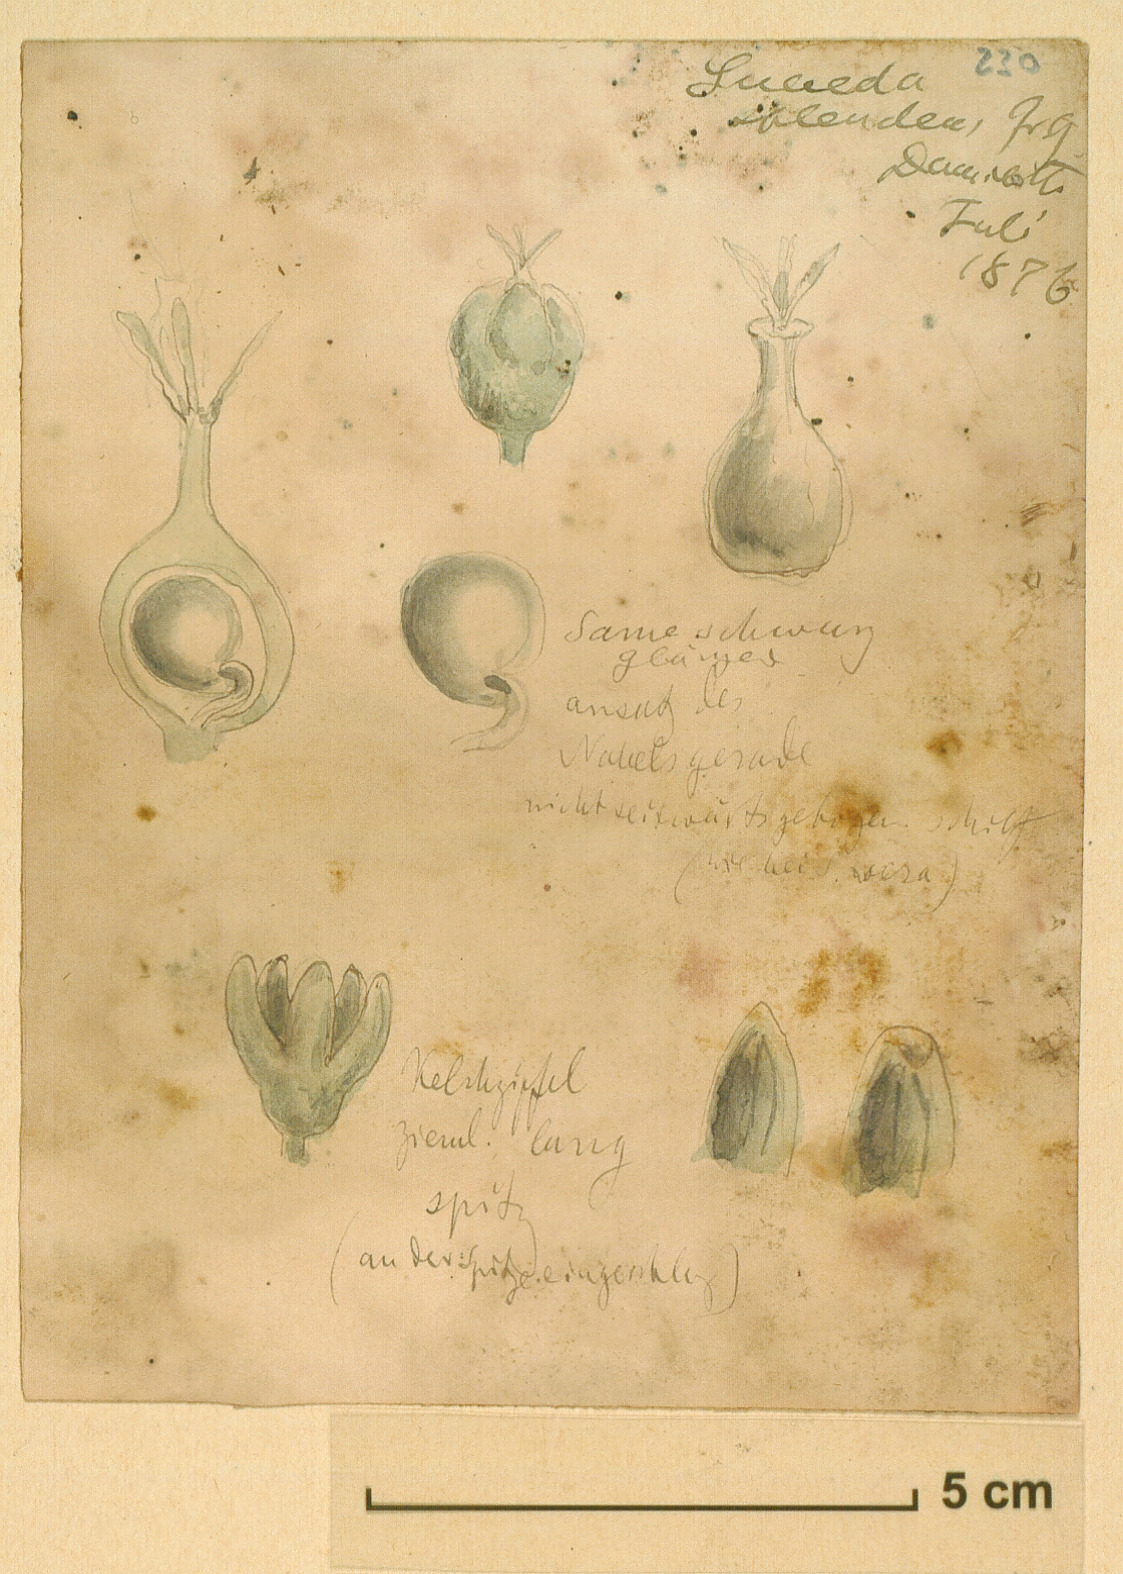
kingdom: Plantae
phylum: Tracheophyta
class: Magnoliopsida
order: Caryophyllales
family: Amaranthaceae
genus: Suaeda
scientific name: Suaeda splendens
